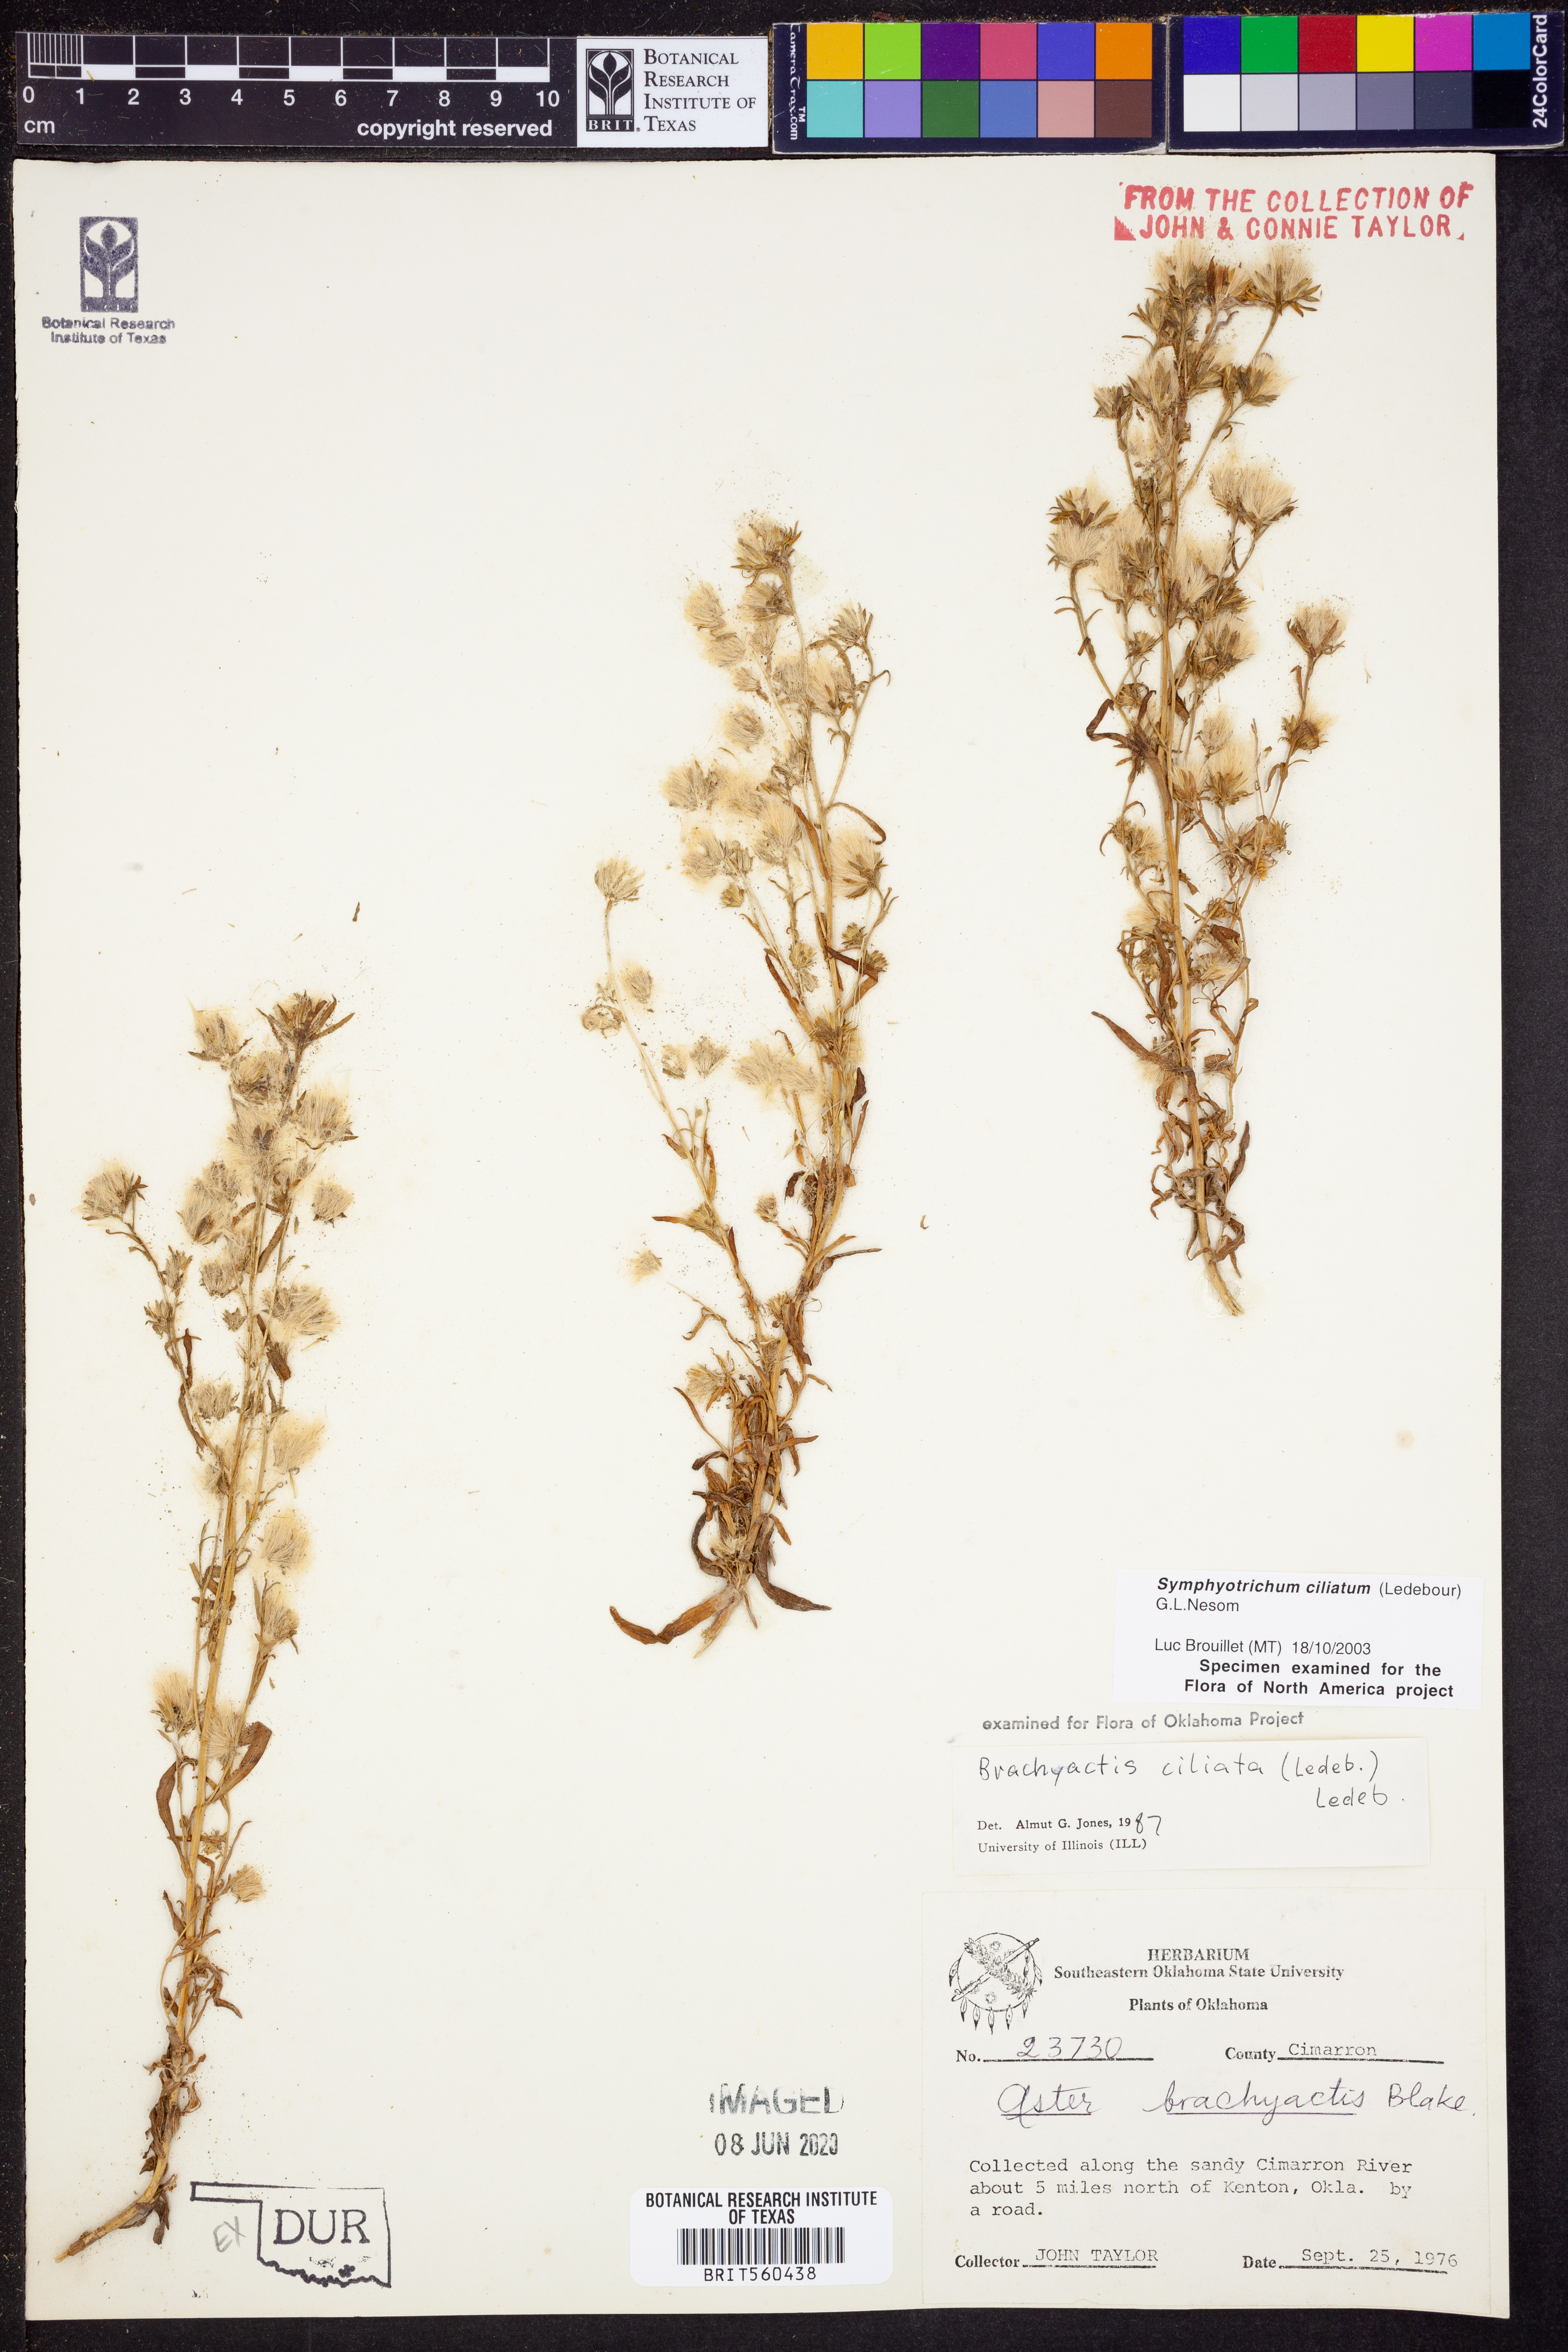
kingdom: Plantae
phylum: Tracheophyta
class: Magnoliopsida
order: Asterales
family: Asteraceae
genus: Symphyotrichum
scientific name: Symphyotrichum ciliatum
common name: Rayless annual aster
